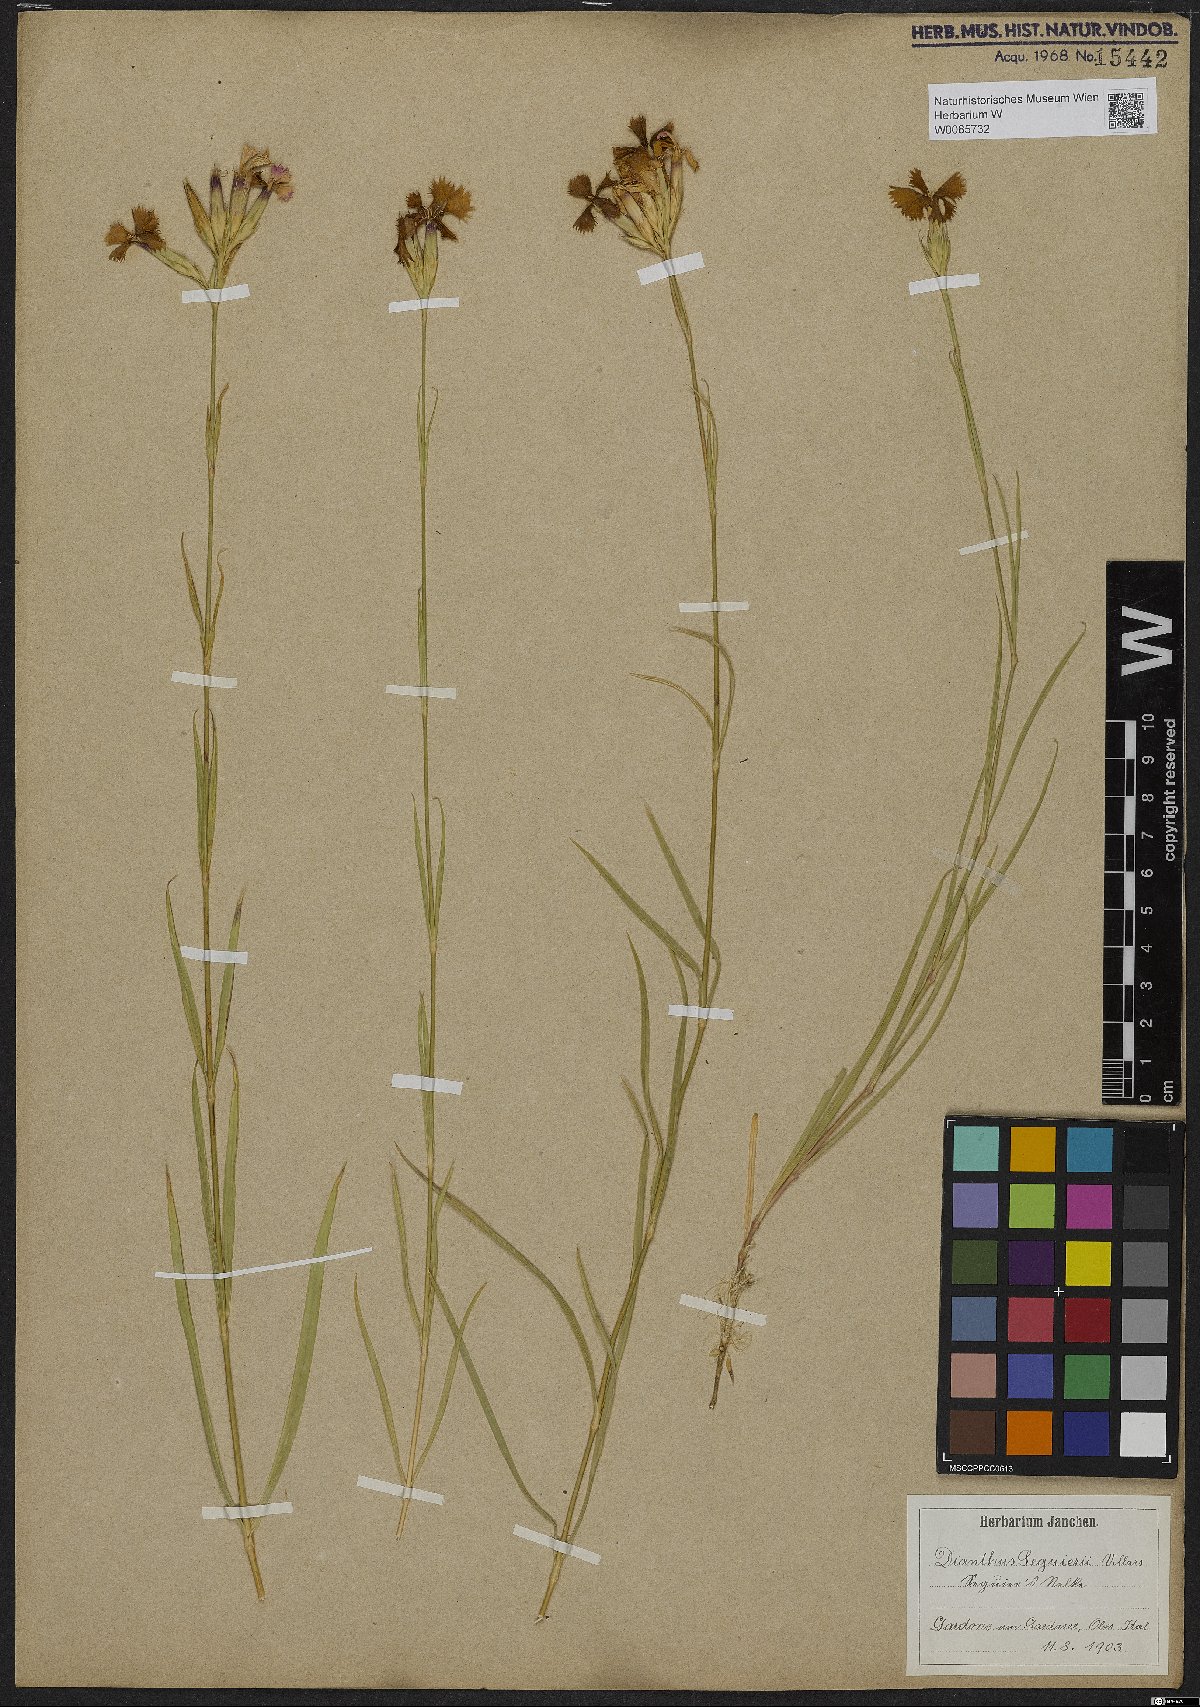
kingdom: Plantae
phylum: Tracheophyta
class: Magnoliopsida
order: Caryophyllales
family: Caryophyllaceae
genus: Dianthus
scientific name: Dianthus seguieri
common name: Ragged pink
